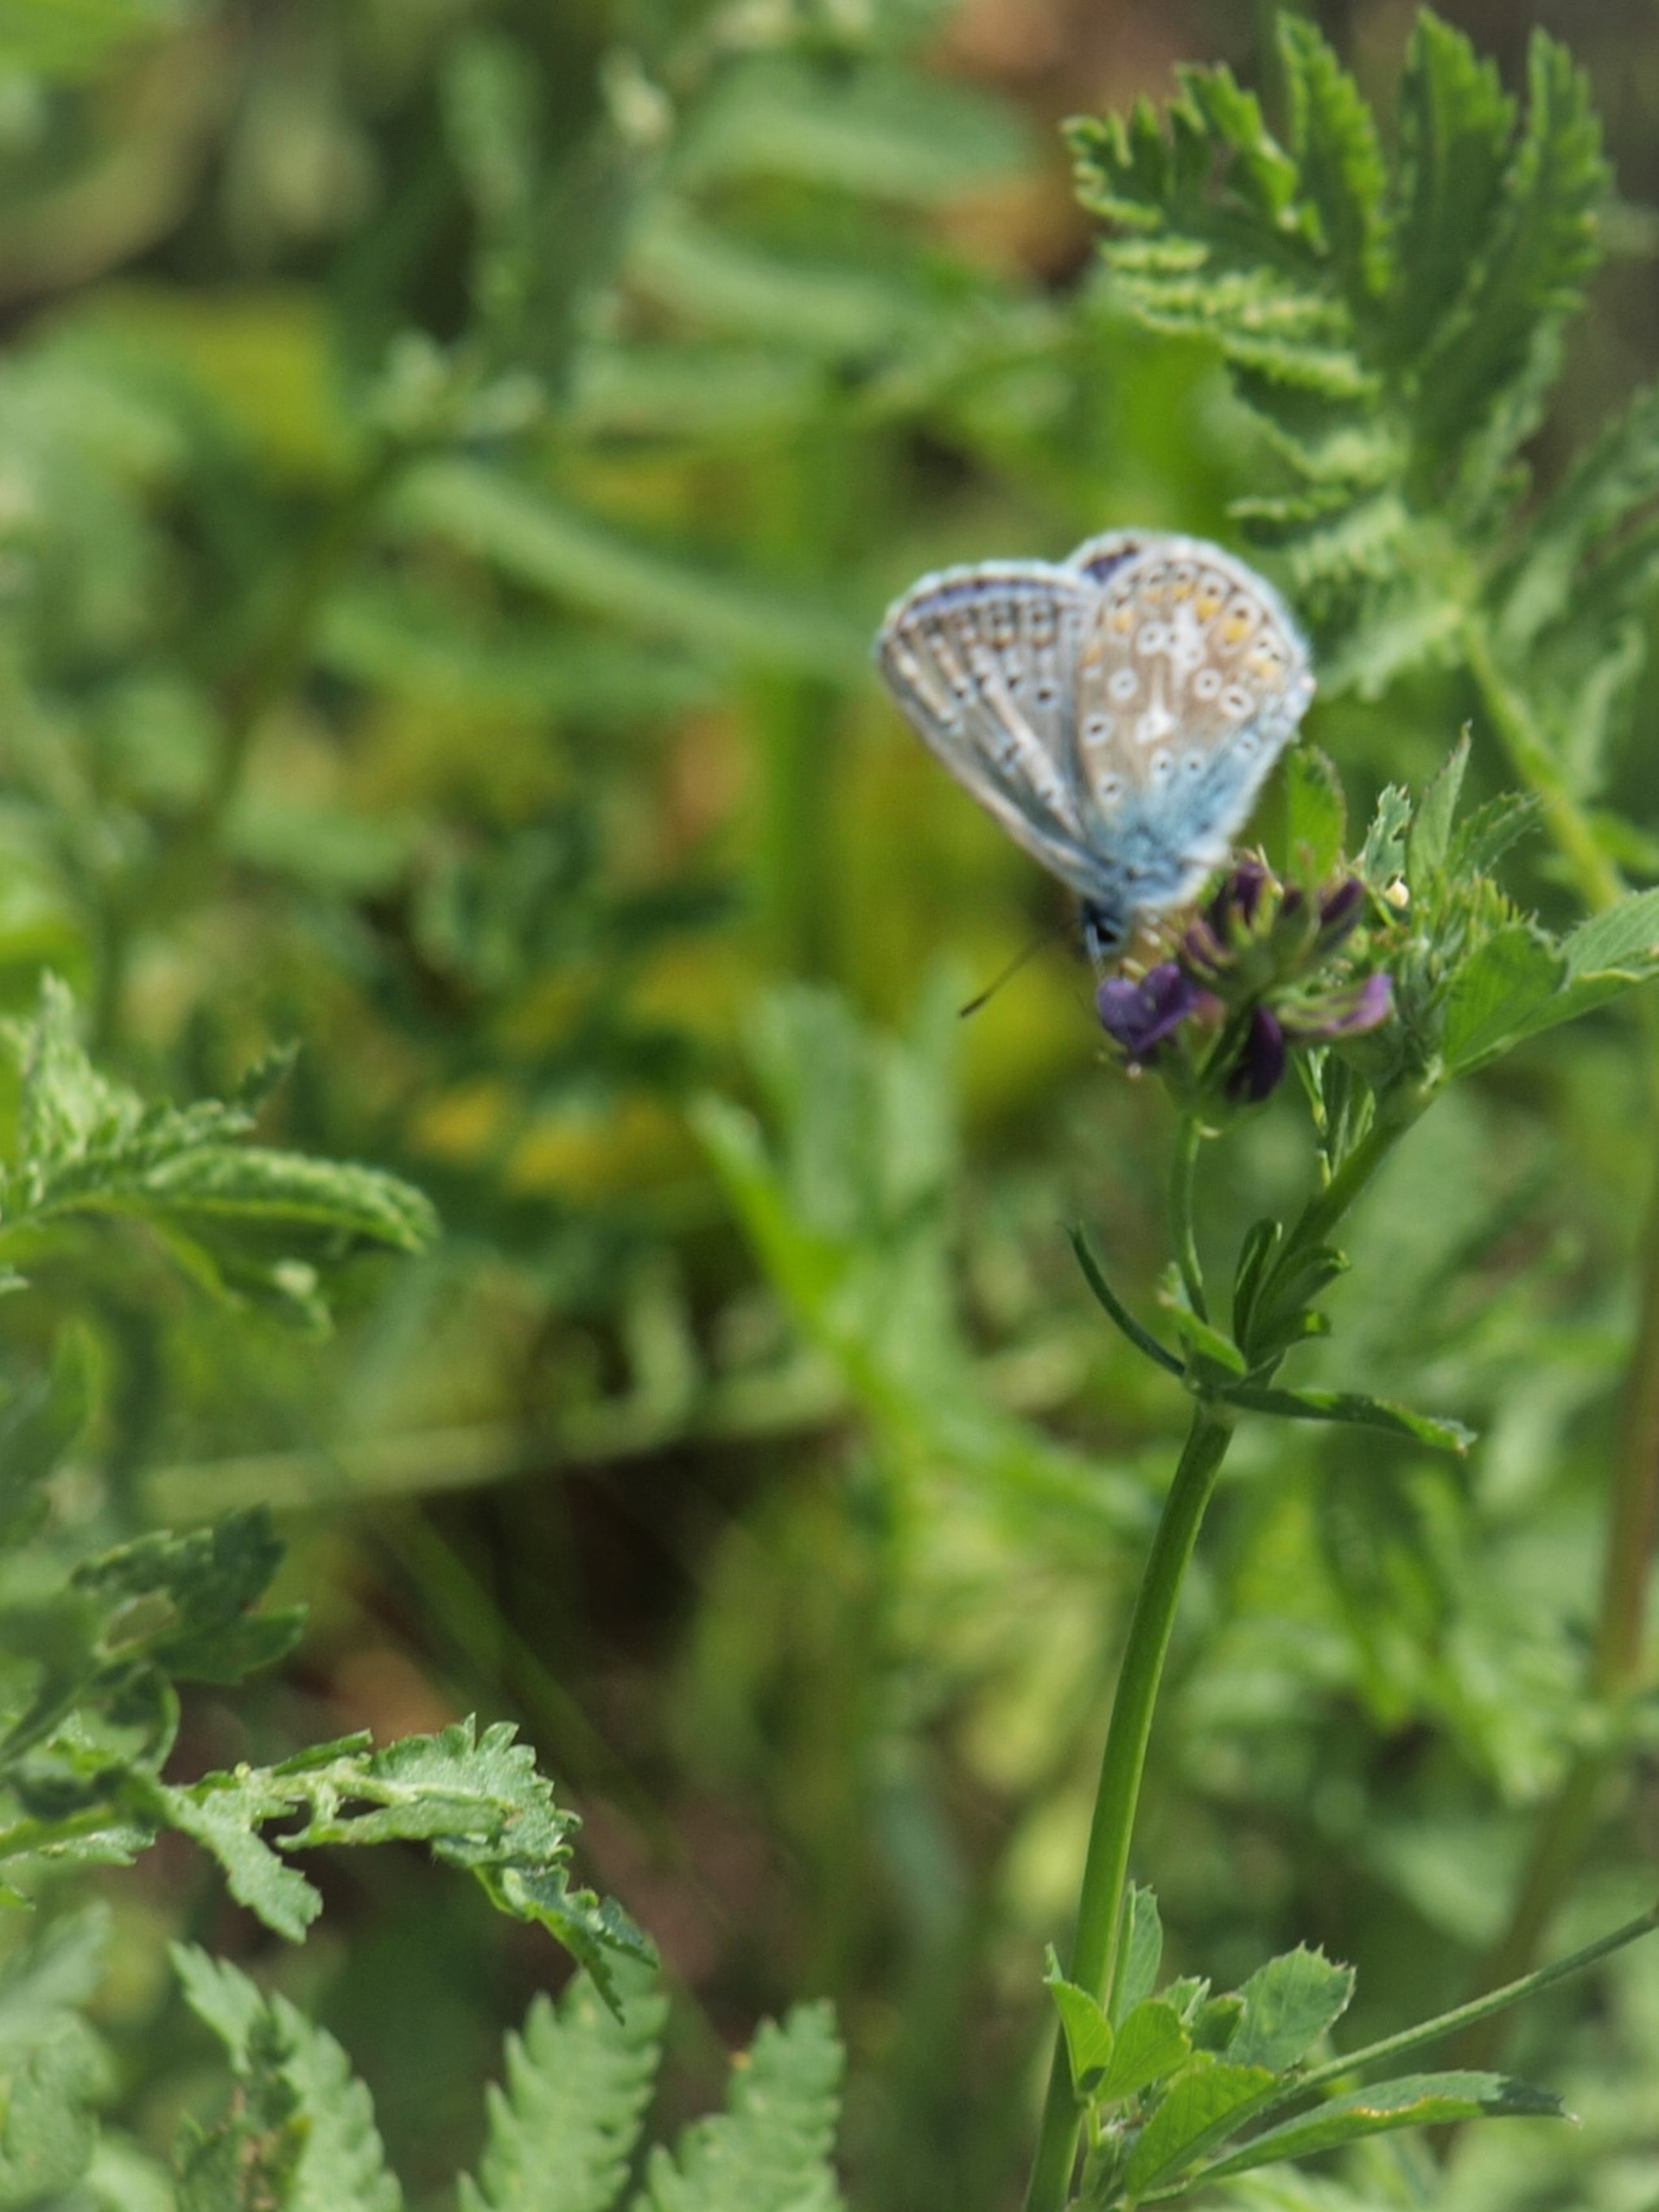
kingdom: Animalia
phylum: Arthropoda
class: Insecta
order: Lepidoptera
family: Lycaenidae
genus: Polyommatus
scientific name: Polyommatus icarus
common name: Almindelig blåfugl
